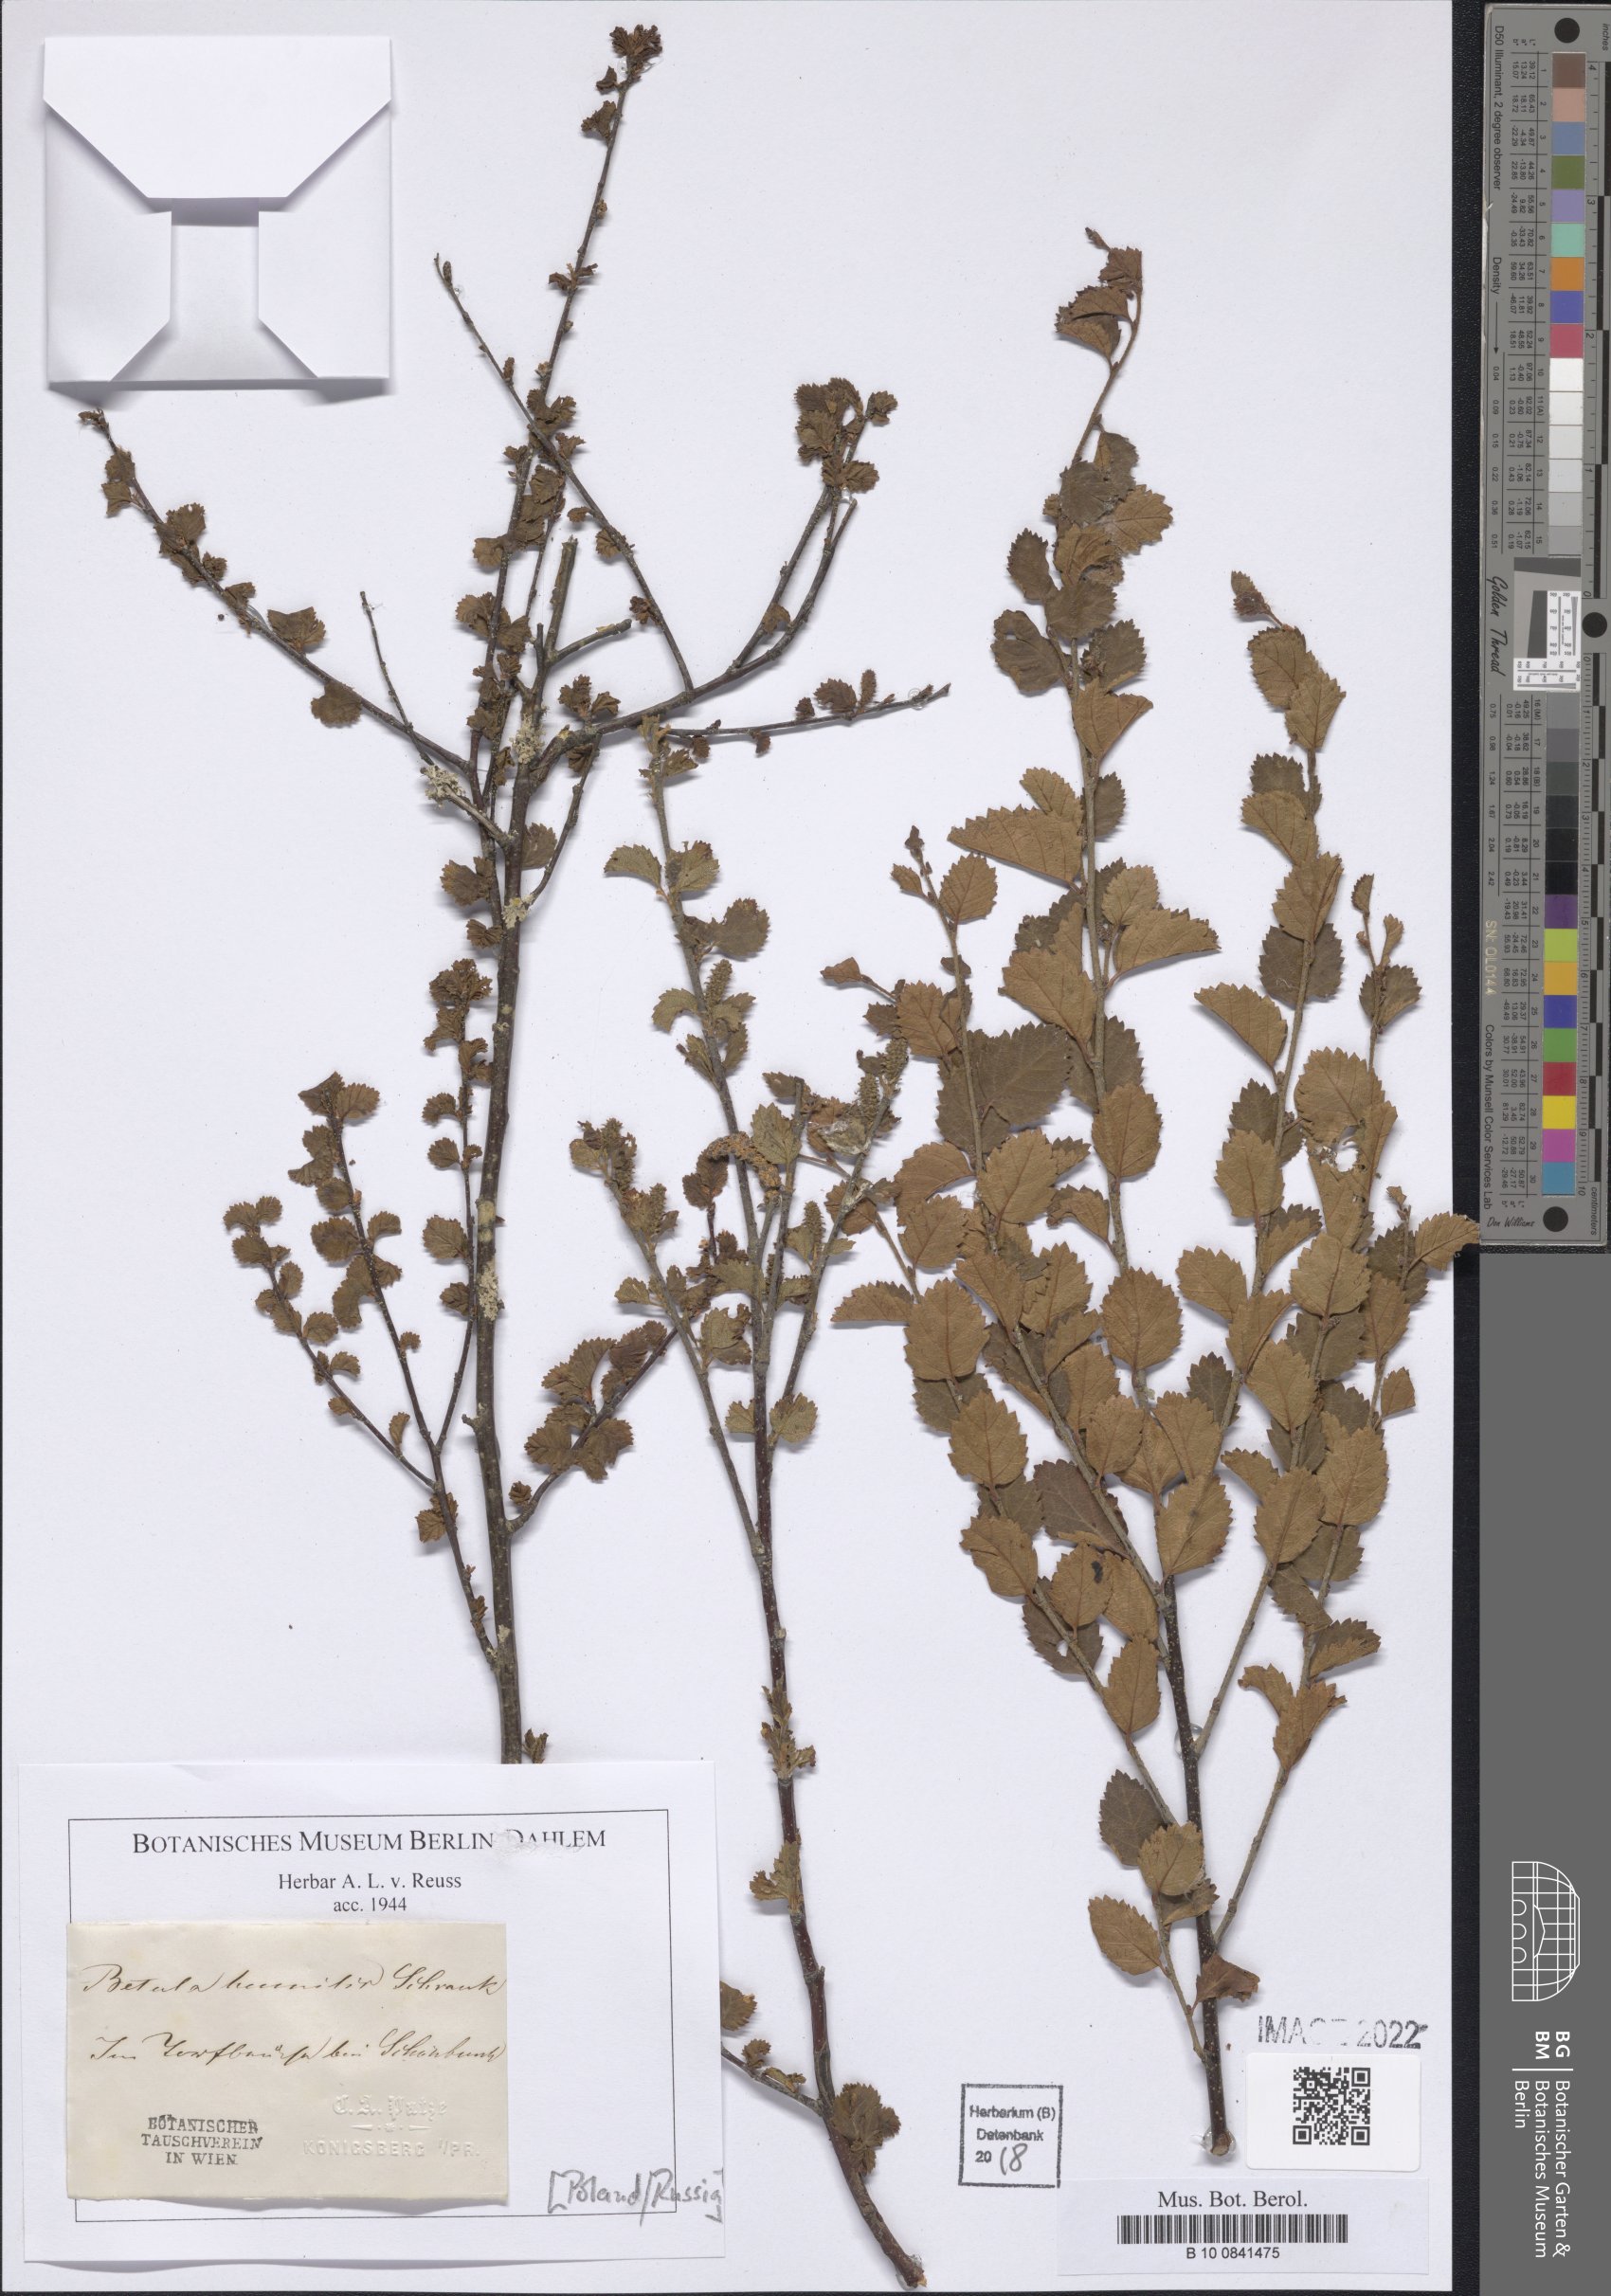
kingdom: Plantae
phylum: Tracheophyta
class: Magnoliopsida
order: Fagales
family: Betulaceae
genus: Betula
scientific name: Betula humilis
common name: Shrubby birch
